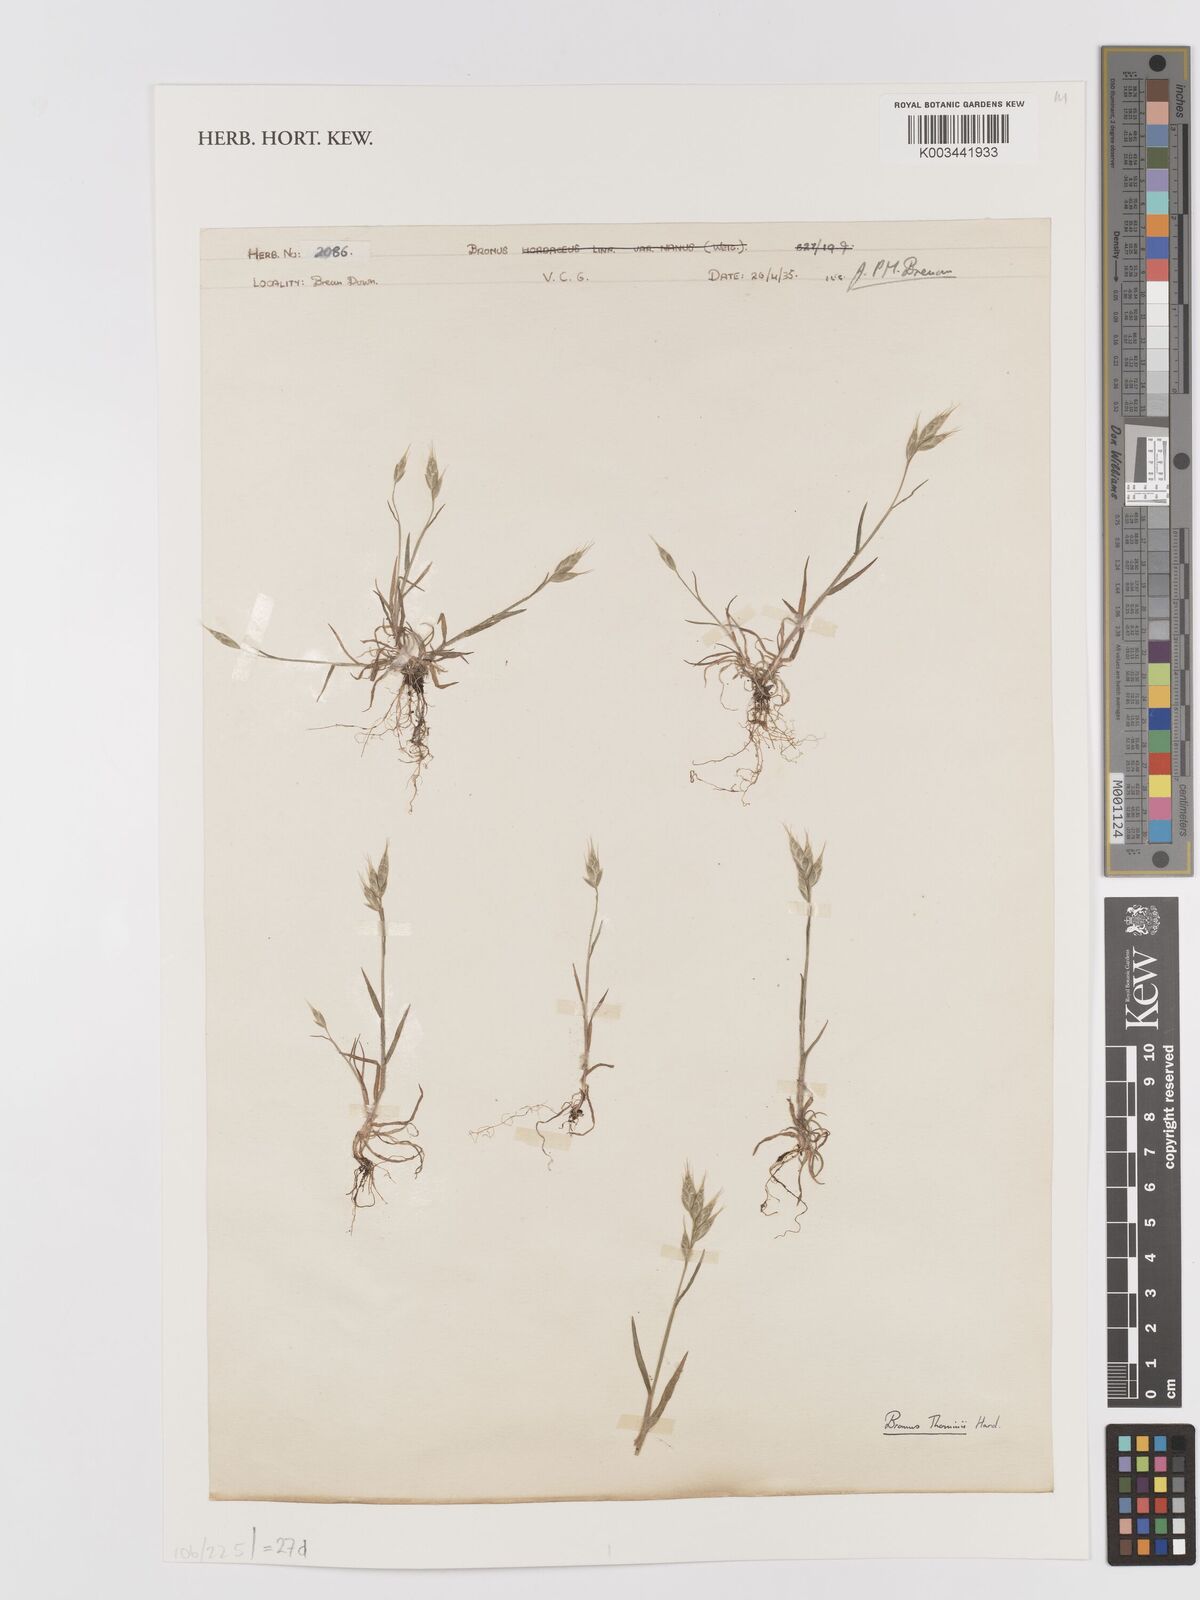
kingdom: Plantae
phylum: Tracheophyta
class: Liliopsida
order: Poales
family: Poaceae
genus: Bromus
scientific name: Bromus hordeaceus
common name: Soft brome
